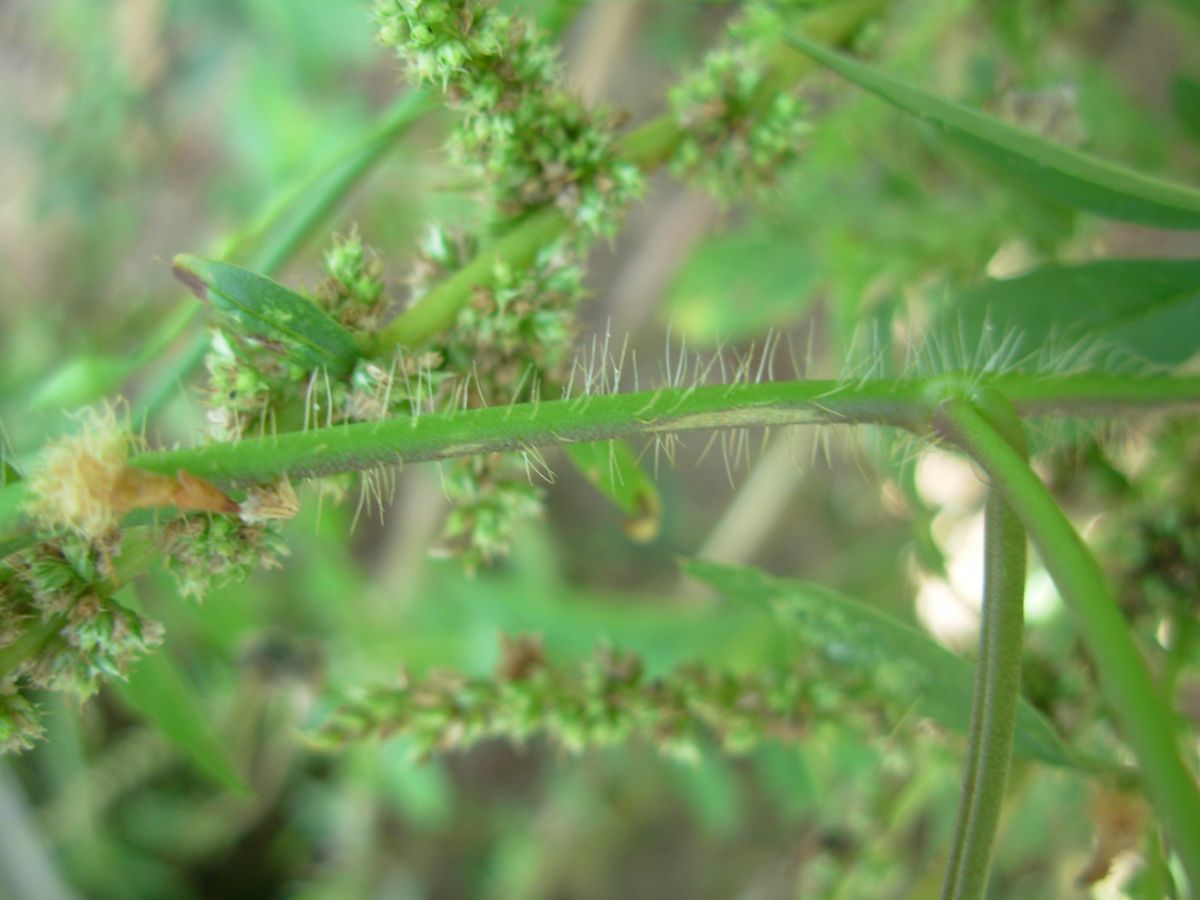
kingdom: Plantae
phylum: Tracheophyta
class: Magnoliopsida
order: Solanales
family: Convolvulaceae
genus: Distimake
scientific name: Distimake quinquefolius
